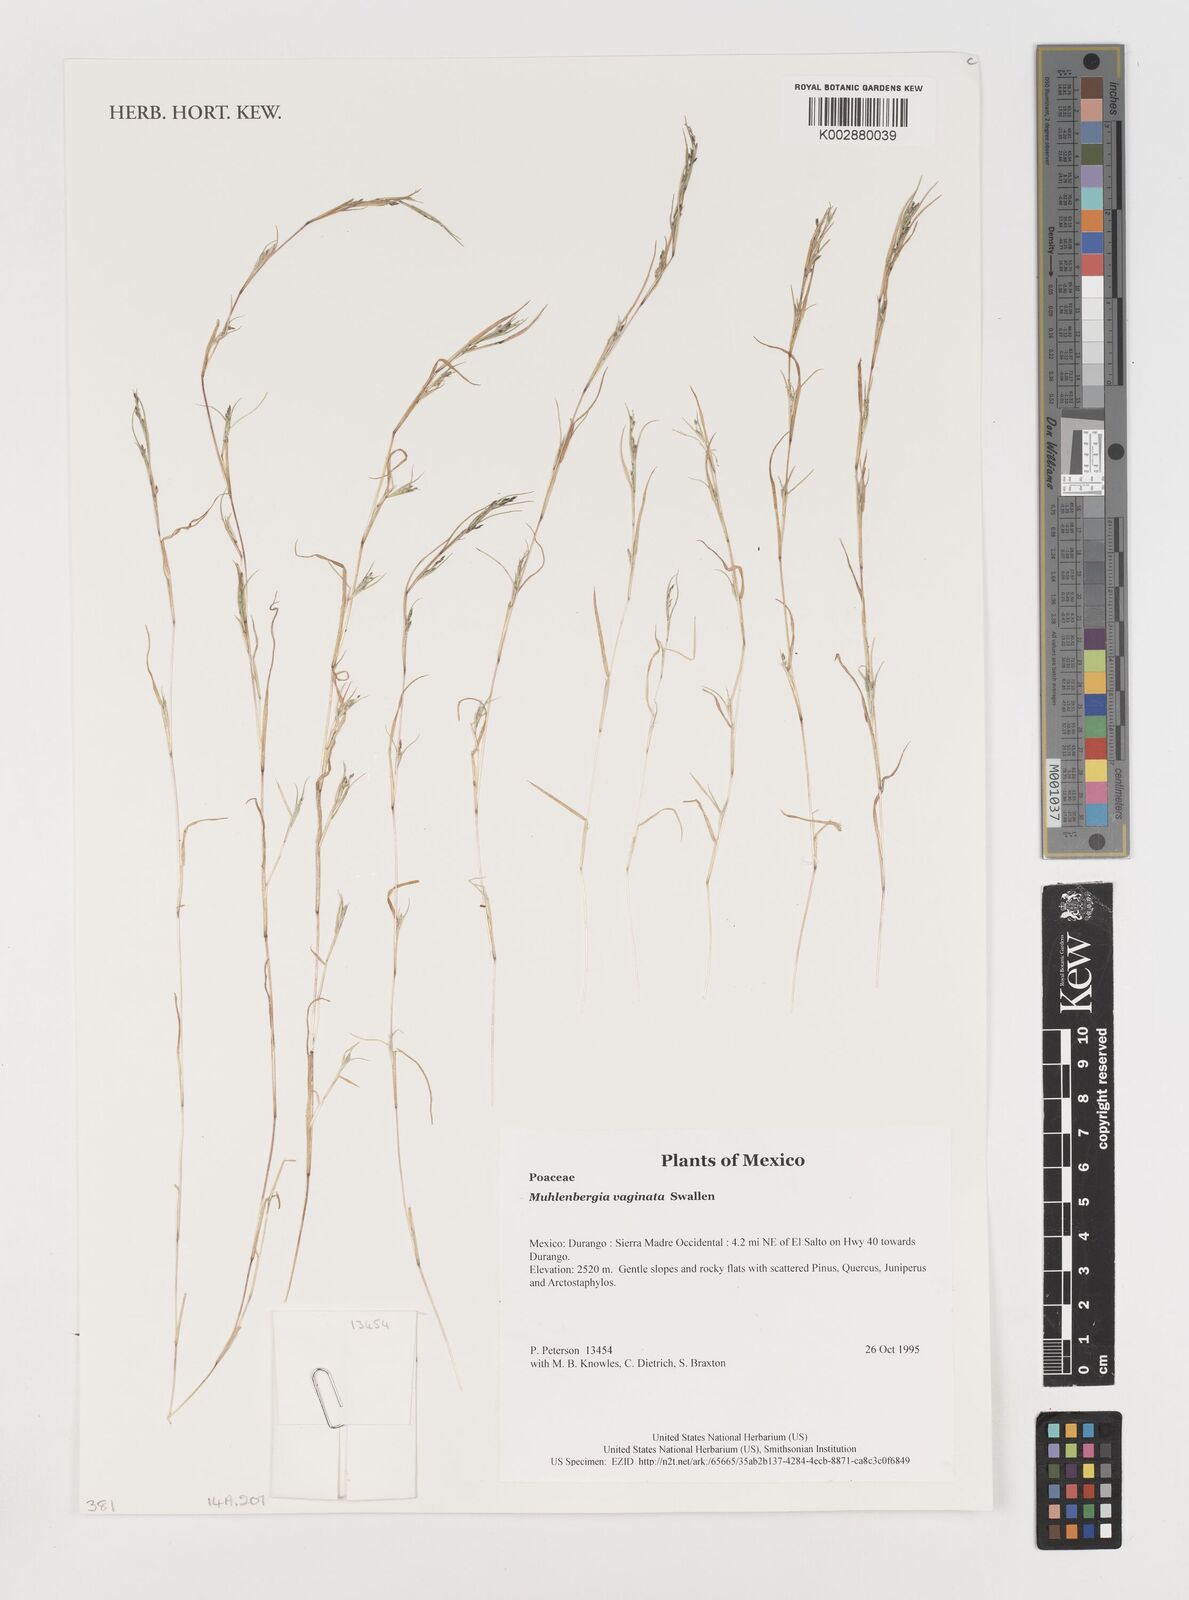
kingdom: Plantae
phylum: Tracheophyta
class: Liliopsida
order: Poales
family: Poaceae
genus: Muhlenbergia
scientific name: Muhlenbergia vaginata
